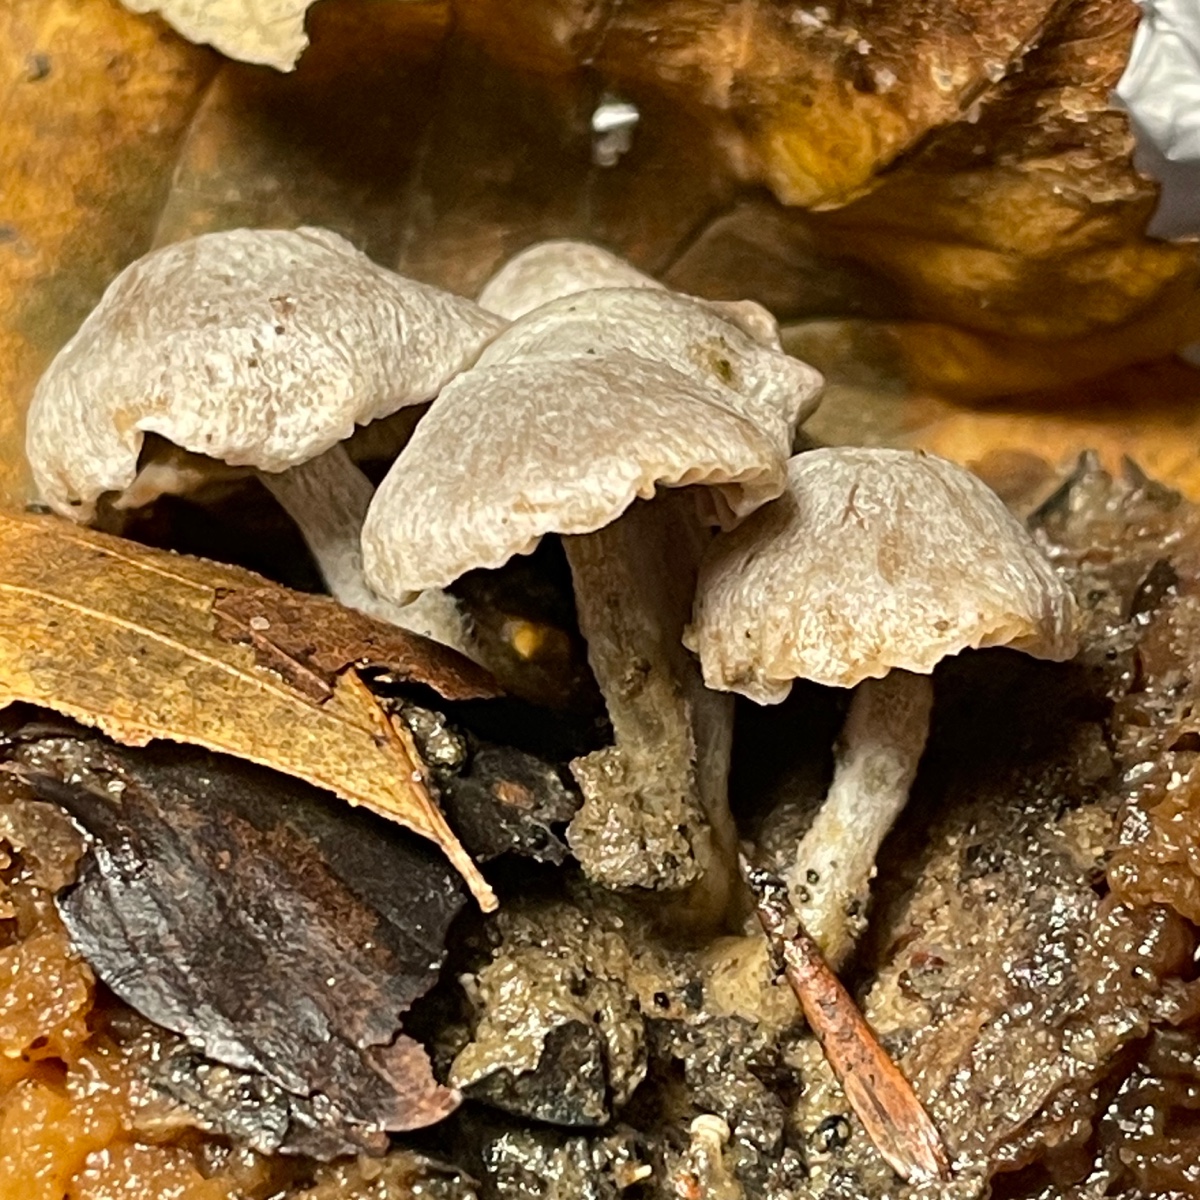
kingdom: Fungi
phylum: Basidiomycota
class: Agaricomycetes
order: Agaricales
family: Lyophyllaceae
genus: Asterophora
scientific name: Asterophora parasitica
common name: grå snyltehat
